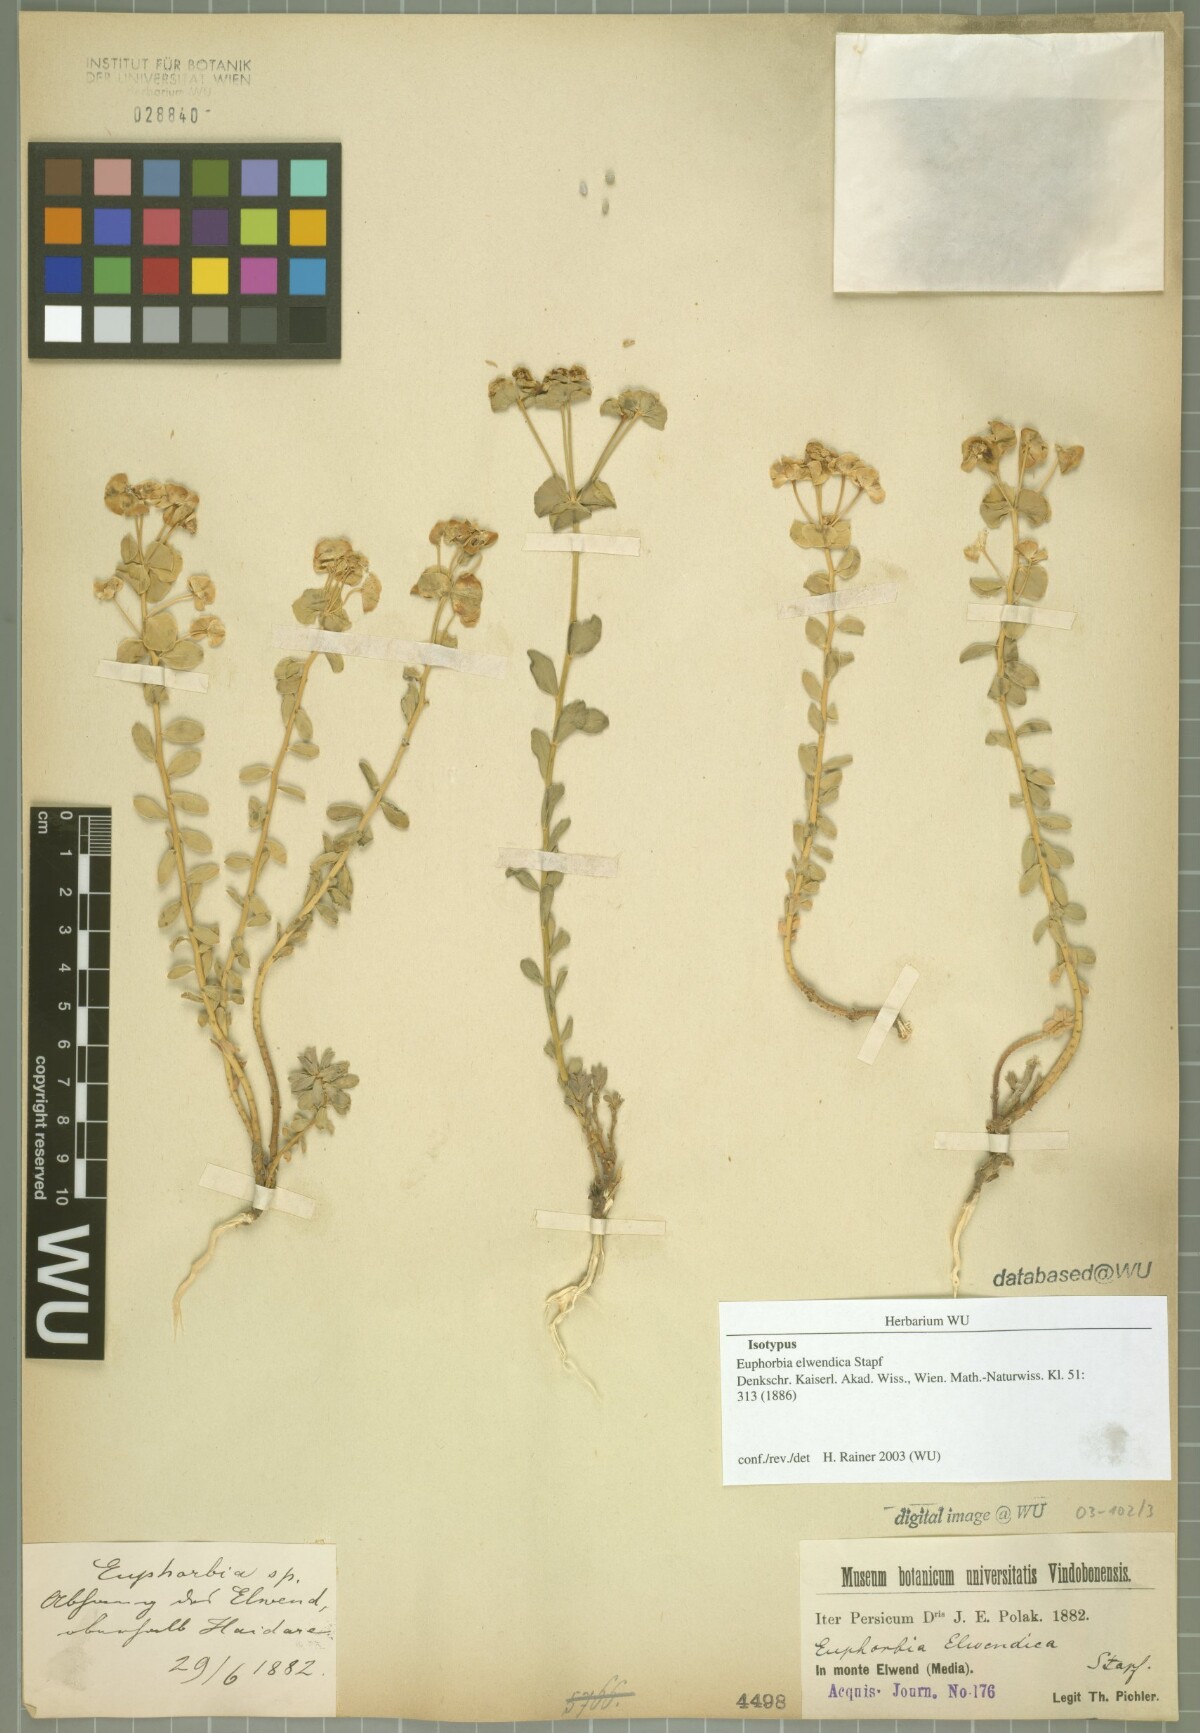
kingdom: Plantae
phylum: Tracheophyta
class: Magnoliopsida
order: Malpighiales
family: Euphorbiaceae
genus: Euphorbia
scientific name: Euphorbia cheiradenia
